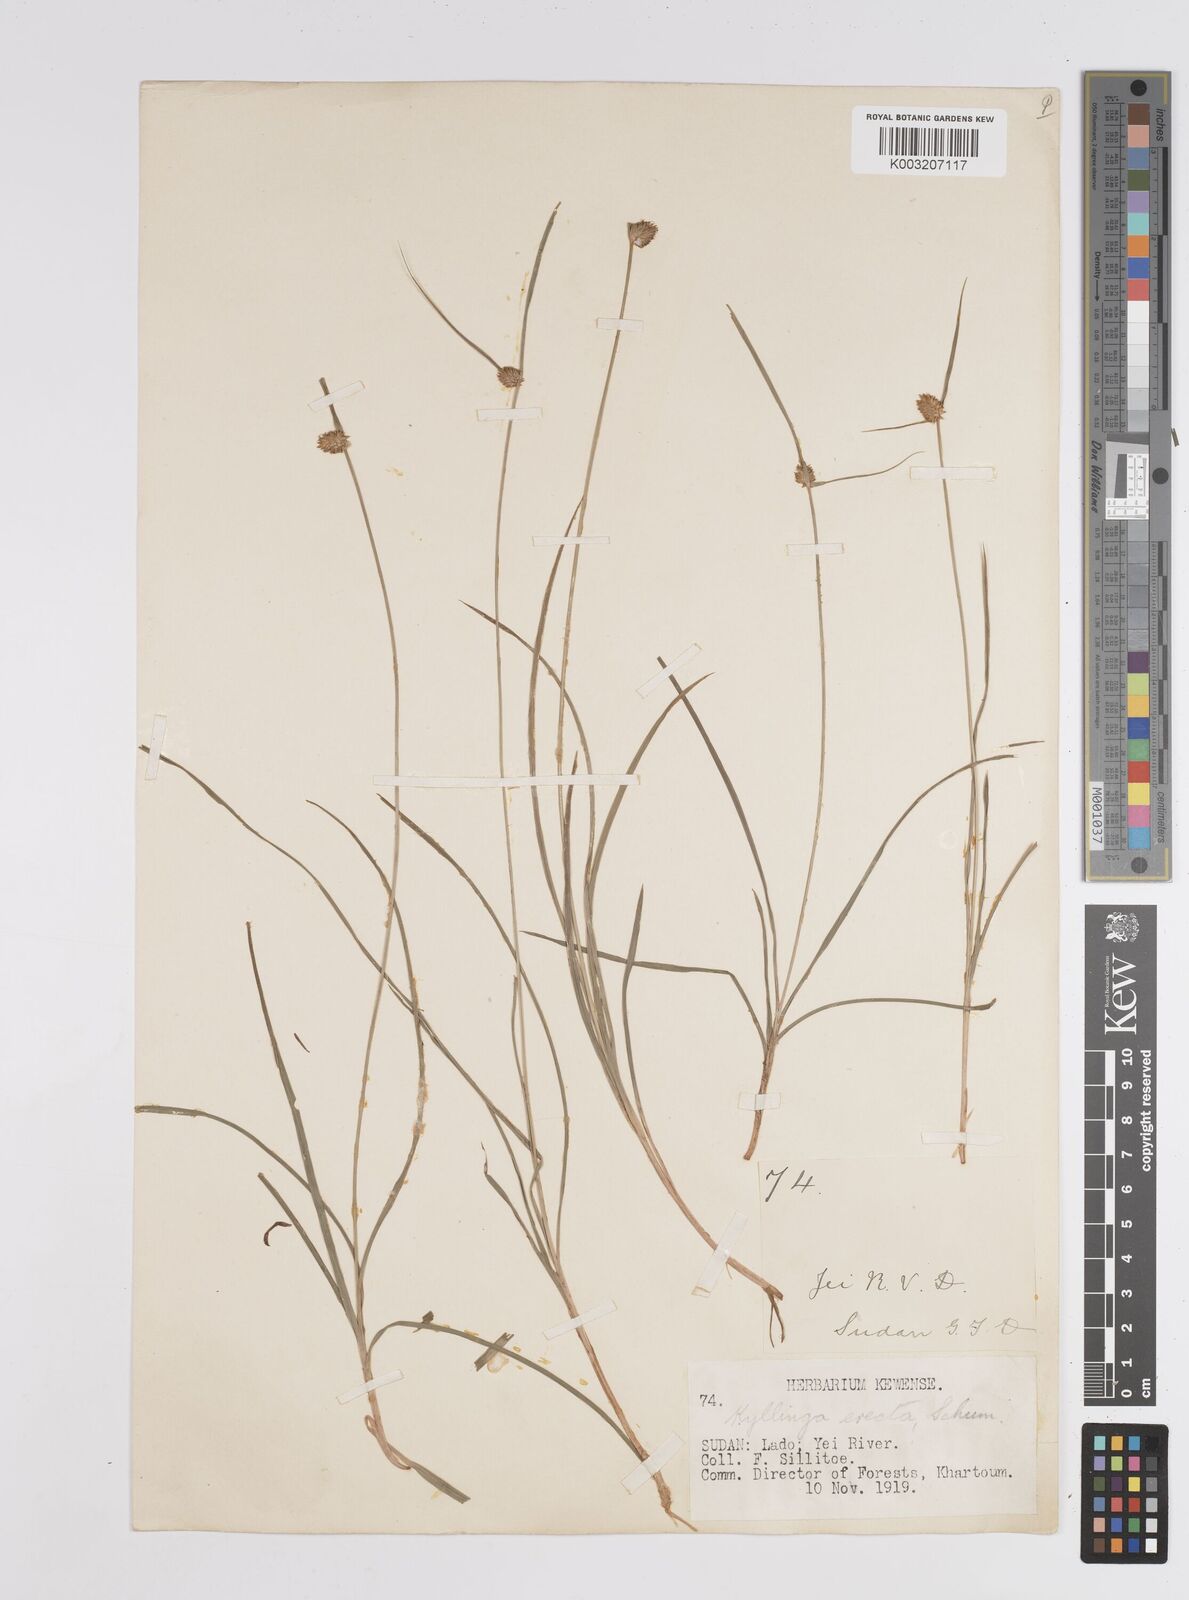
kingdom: Plantae
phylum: Tracheophyta
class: Liliopsida
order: Poales
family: Cyperaceae
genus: Cyperus
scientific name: Cyperus
